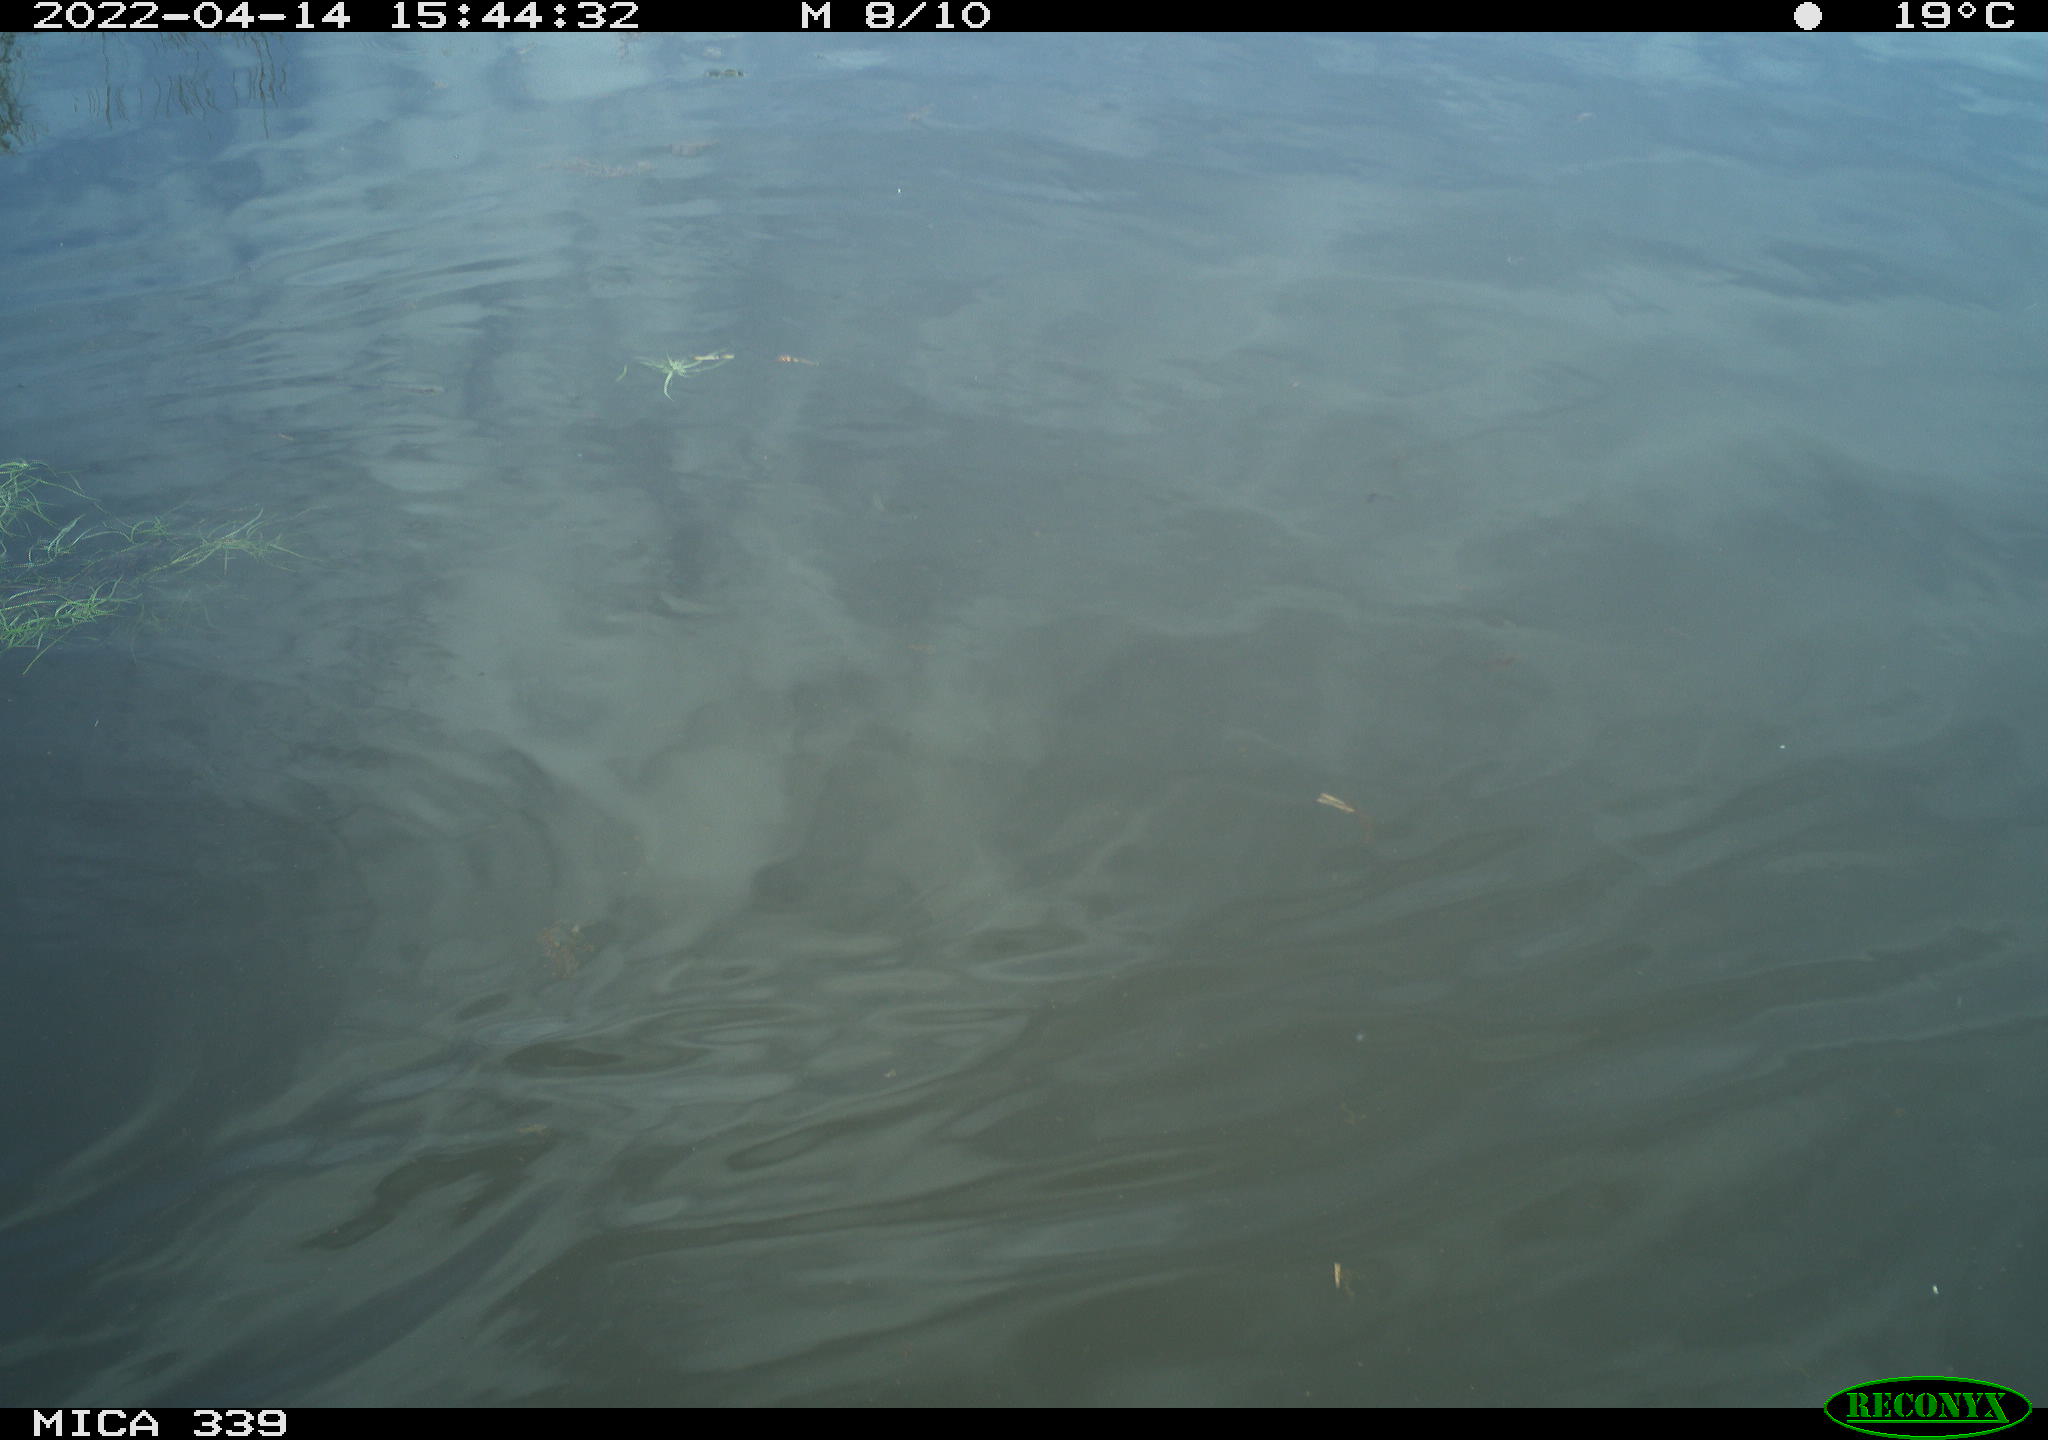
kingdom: Animalia
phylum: Chordata
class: Aves
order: Gruiformes
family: Rallidae
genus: Fulica
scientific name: Fulica atra
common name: Eurasian coot
